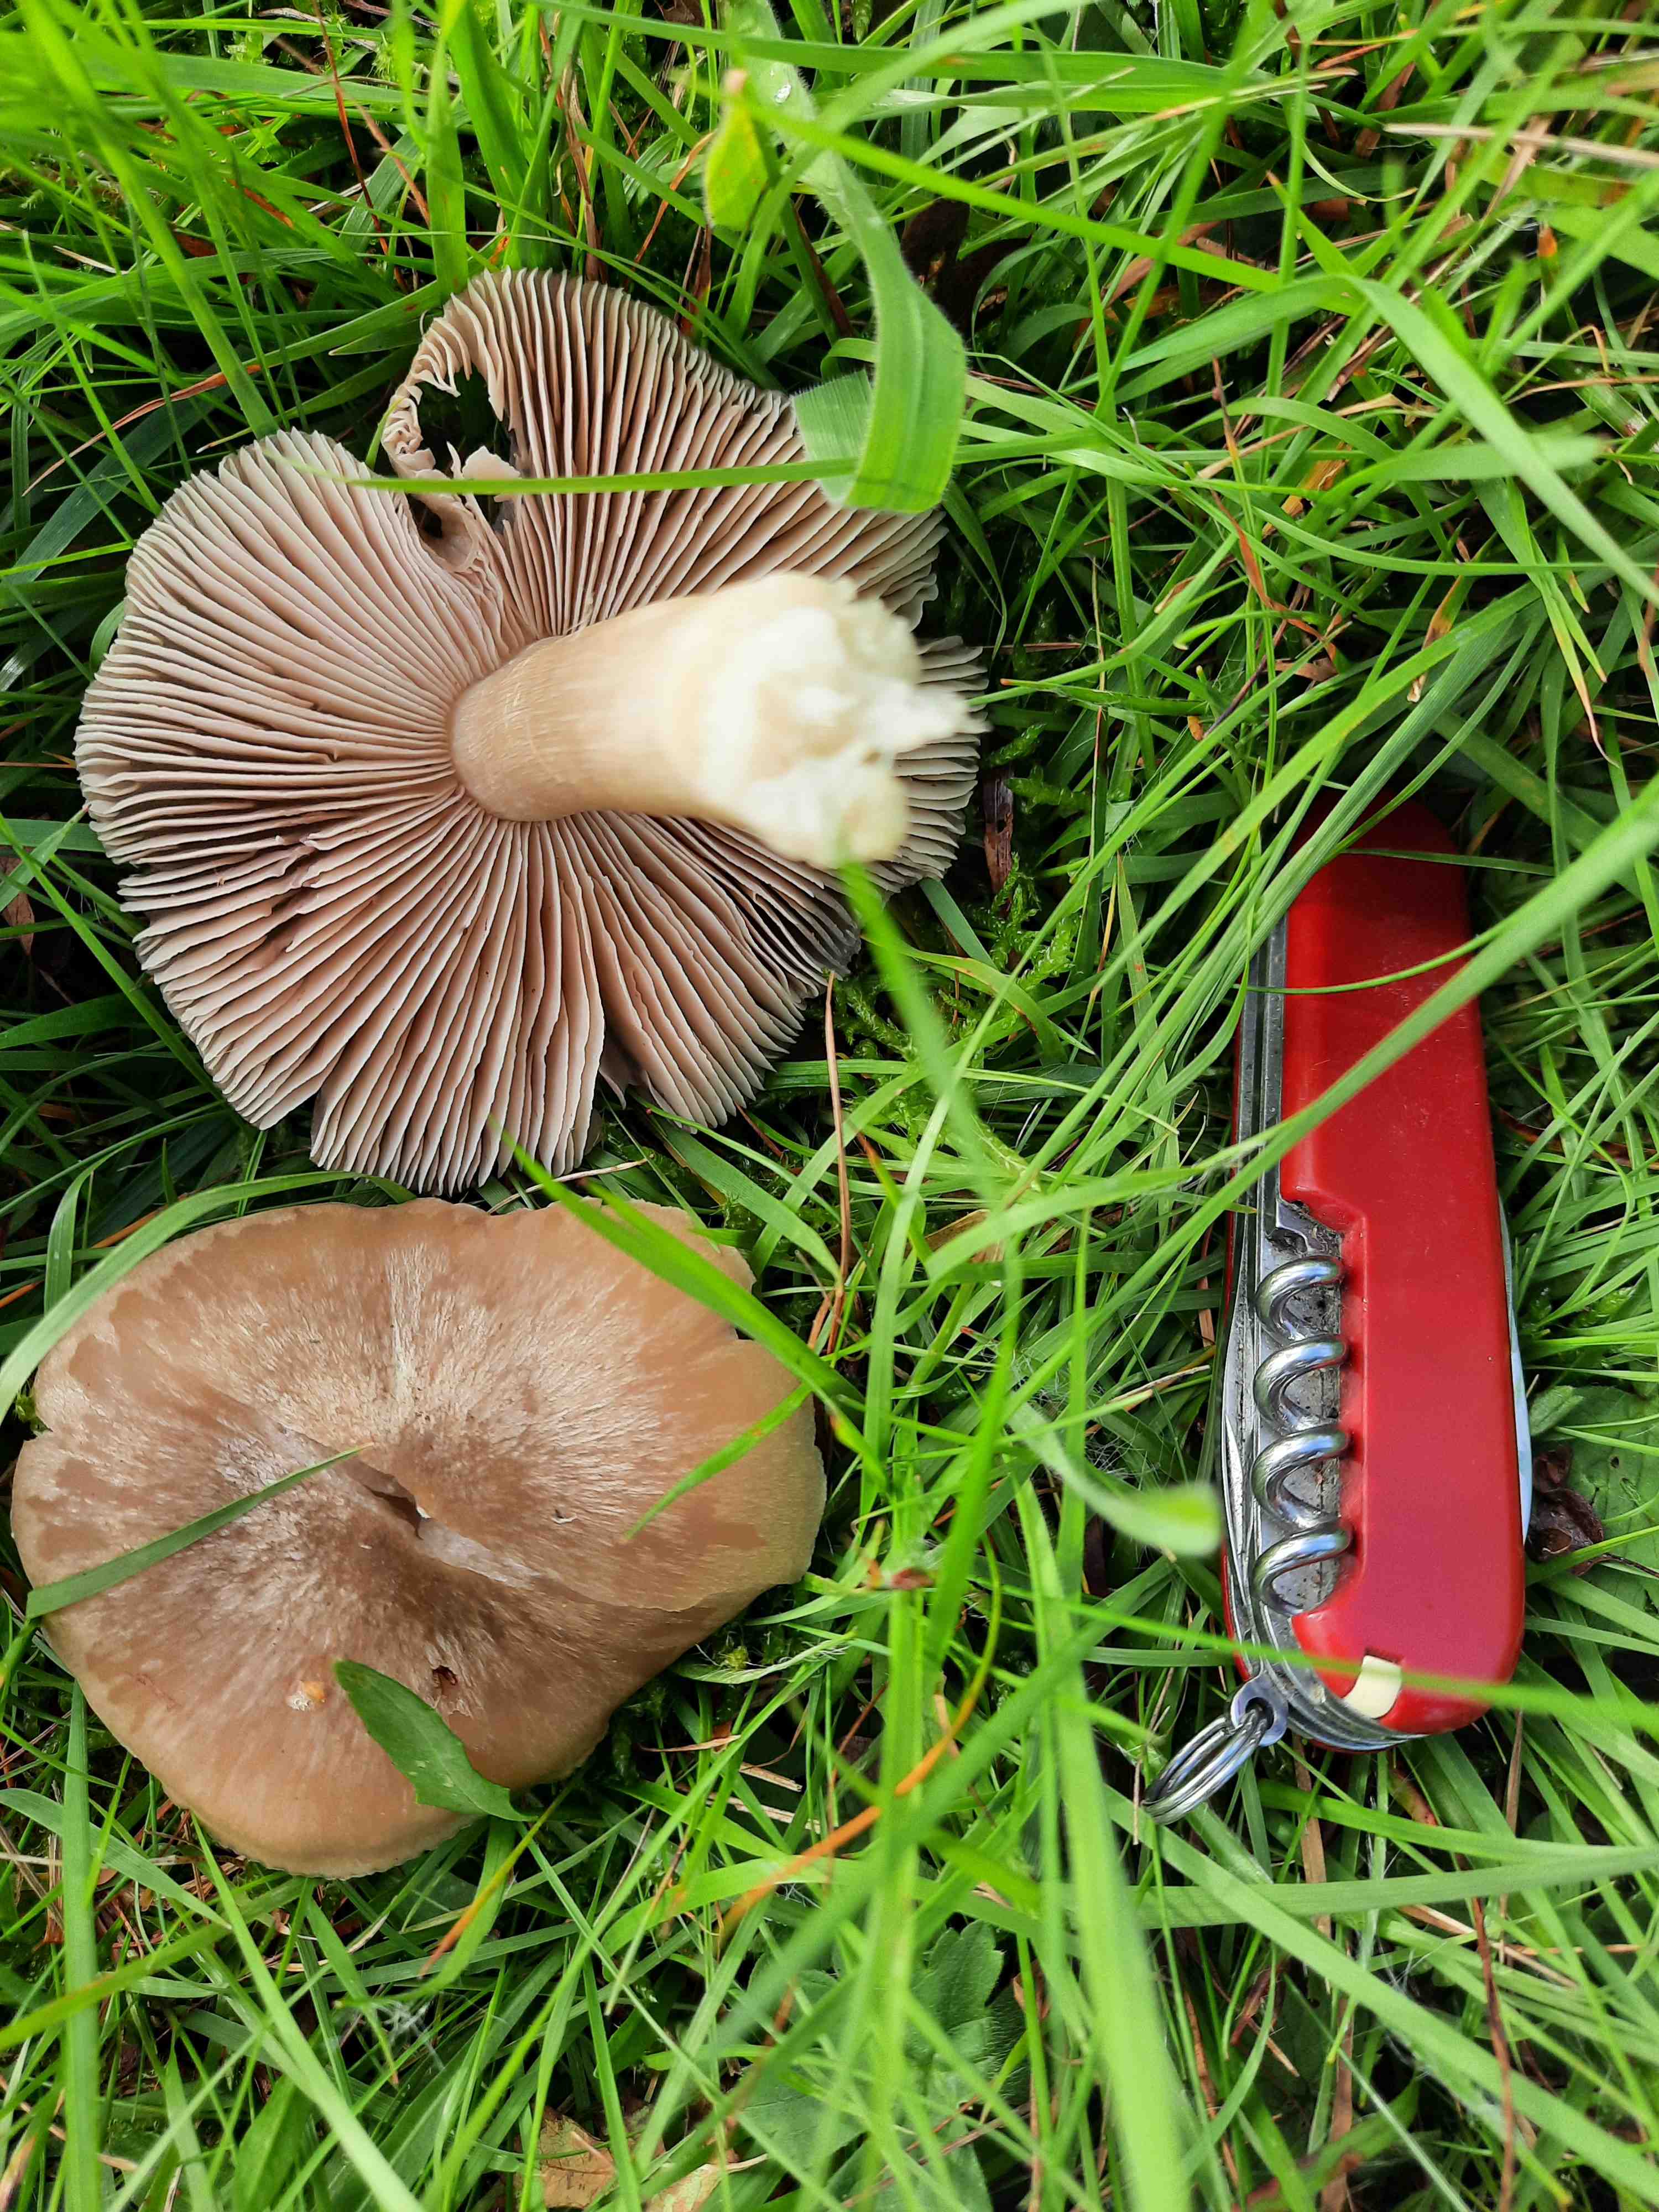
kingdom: Fungi
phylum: Basidiomycota
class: Agaricomycetes
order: Agaricales
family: Entolomataceae
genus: Entoloma
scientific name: Entoloma prunuloides
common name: mel-rødblad
